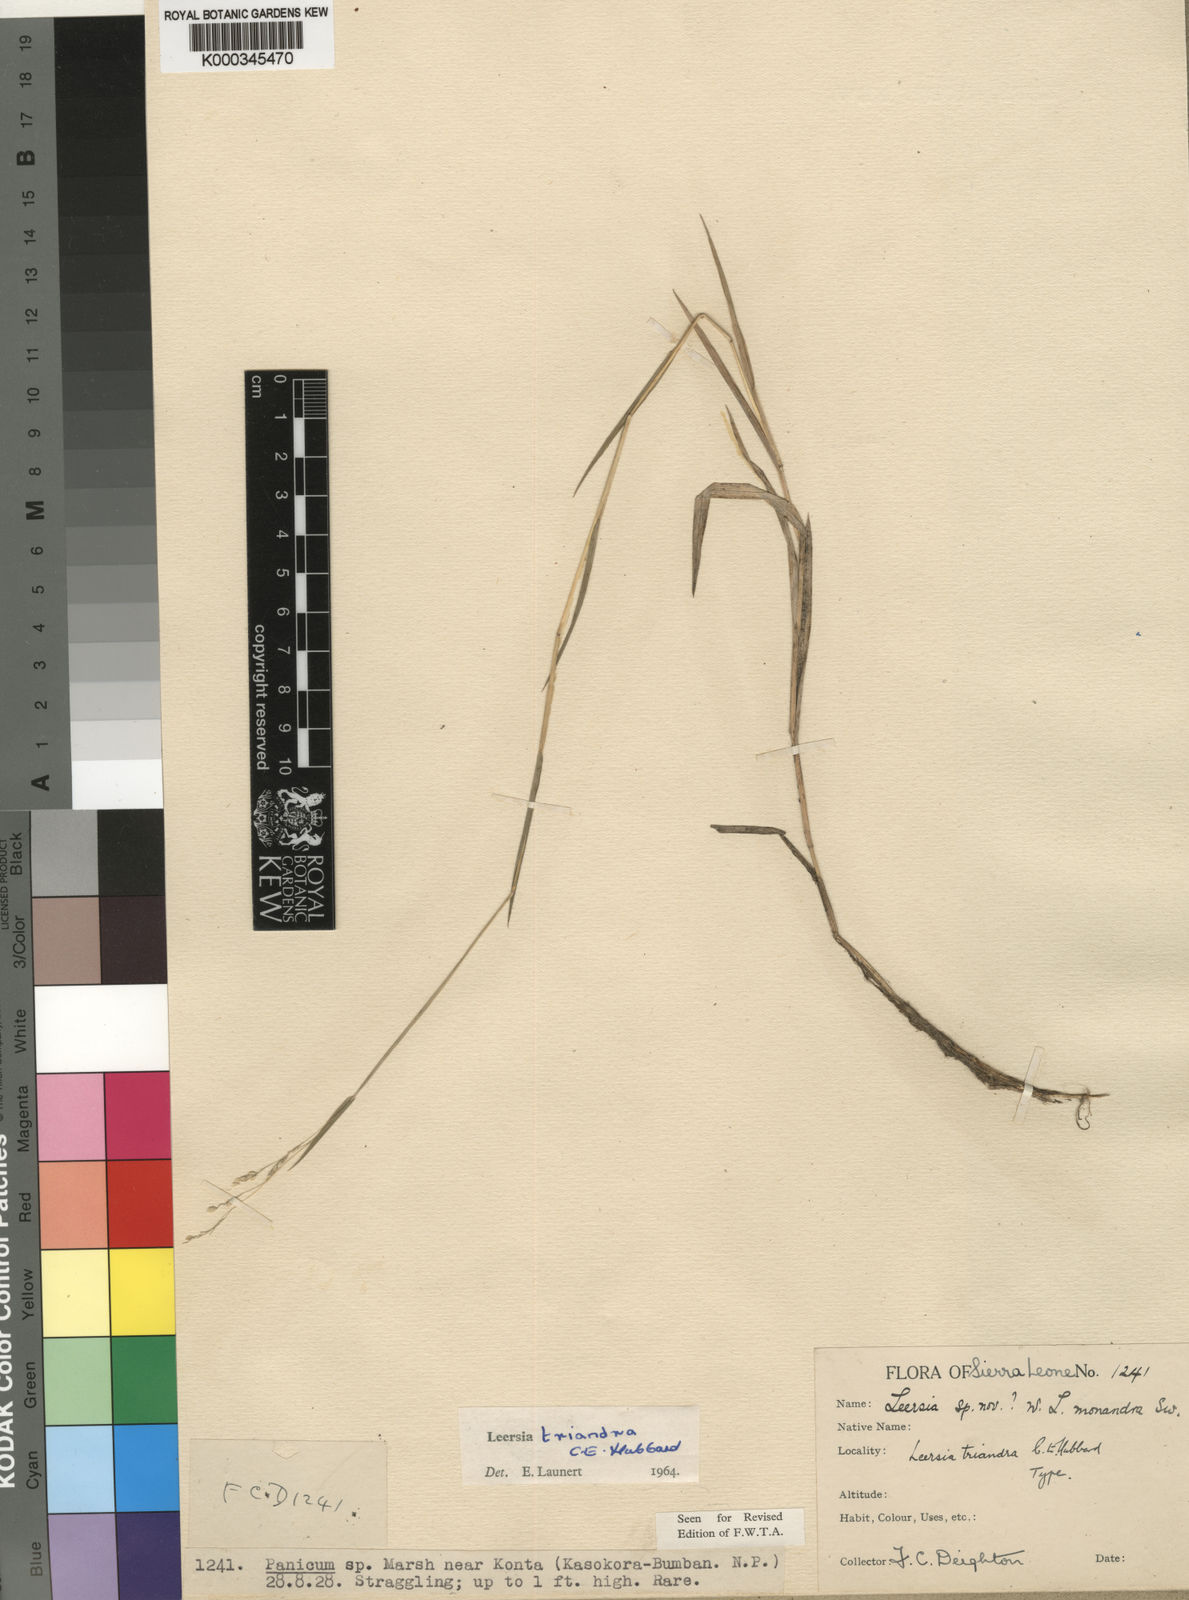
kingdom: Plantae
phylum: Tracheophyta
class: Liliopsida
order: Poales
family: Poaceae
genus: Leersia
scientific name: Leersia triandra
